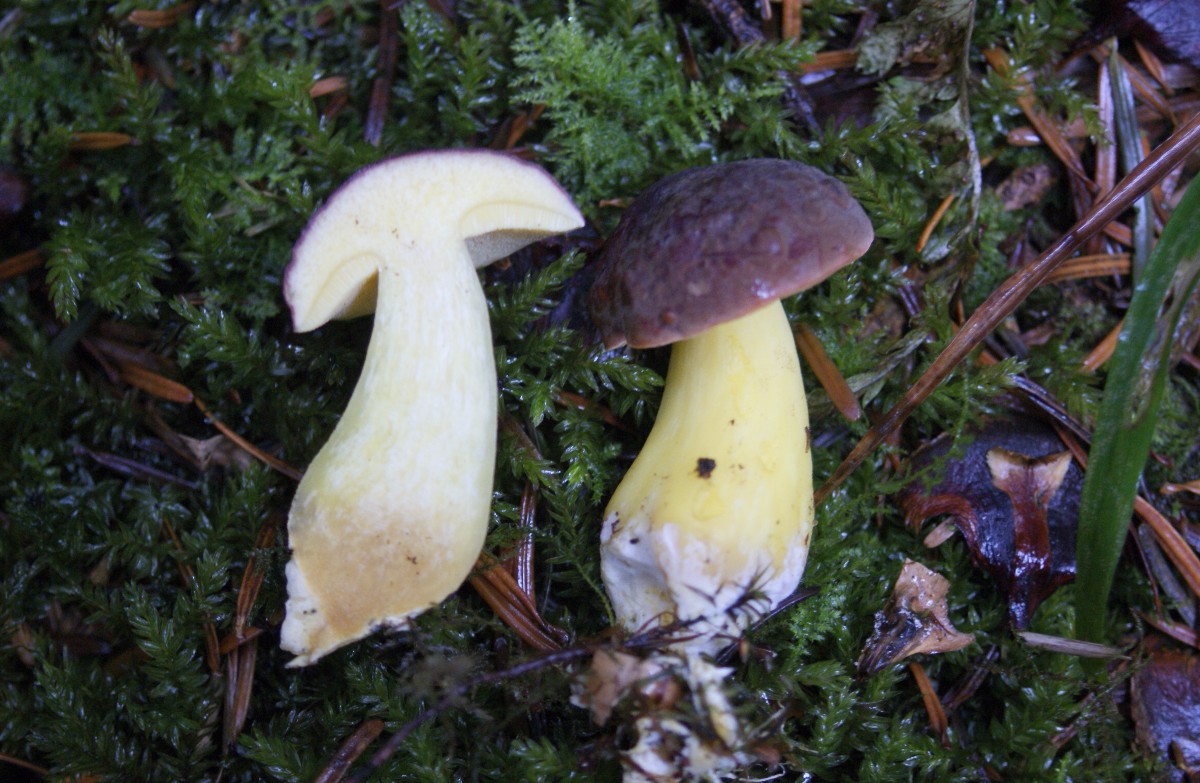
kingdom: Fungi
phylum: Basidiomycota
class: Agaricomycetes
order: Boletales
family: Boletaceae
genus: Xerocomellus
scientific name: Xerocomellus pruinatus
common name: dugget rørhat
